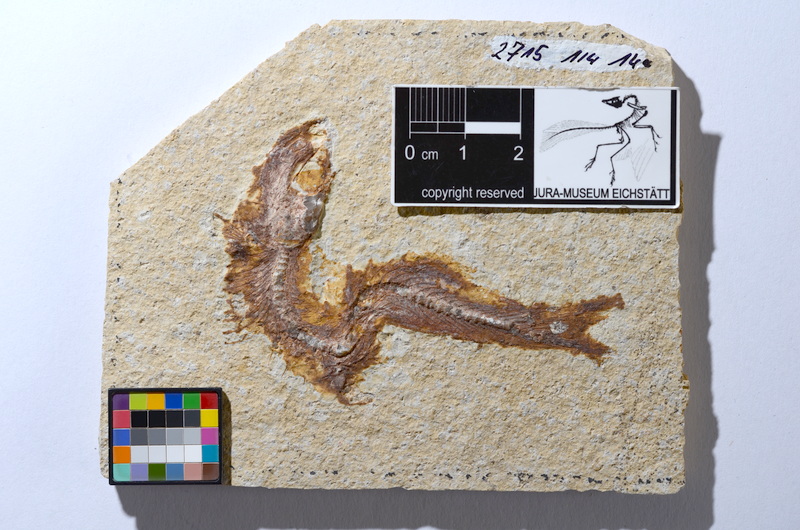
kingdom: Animalia
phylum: Chordata
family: Ascalaboidae
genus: Tharsis
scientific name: Tharsis dubius
